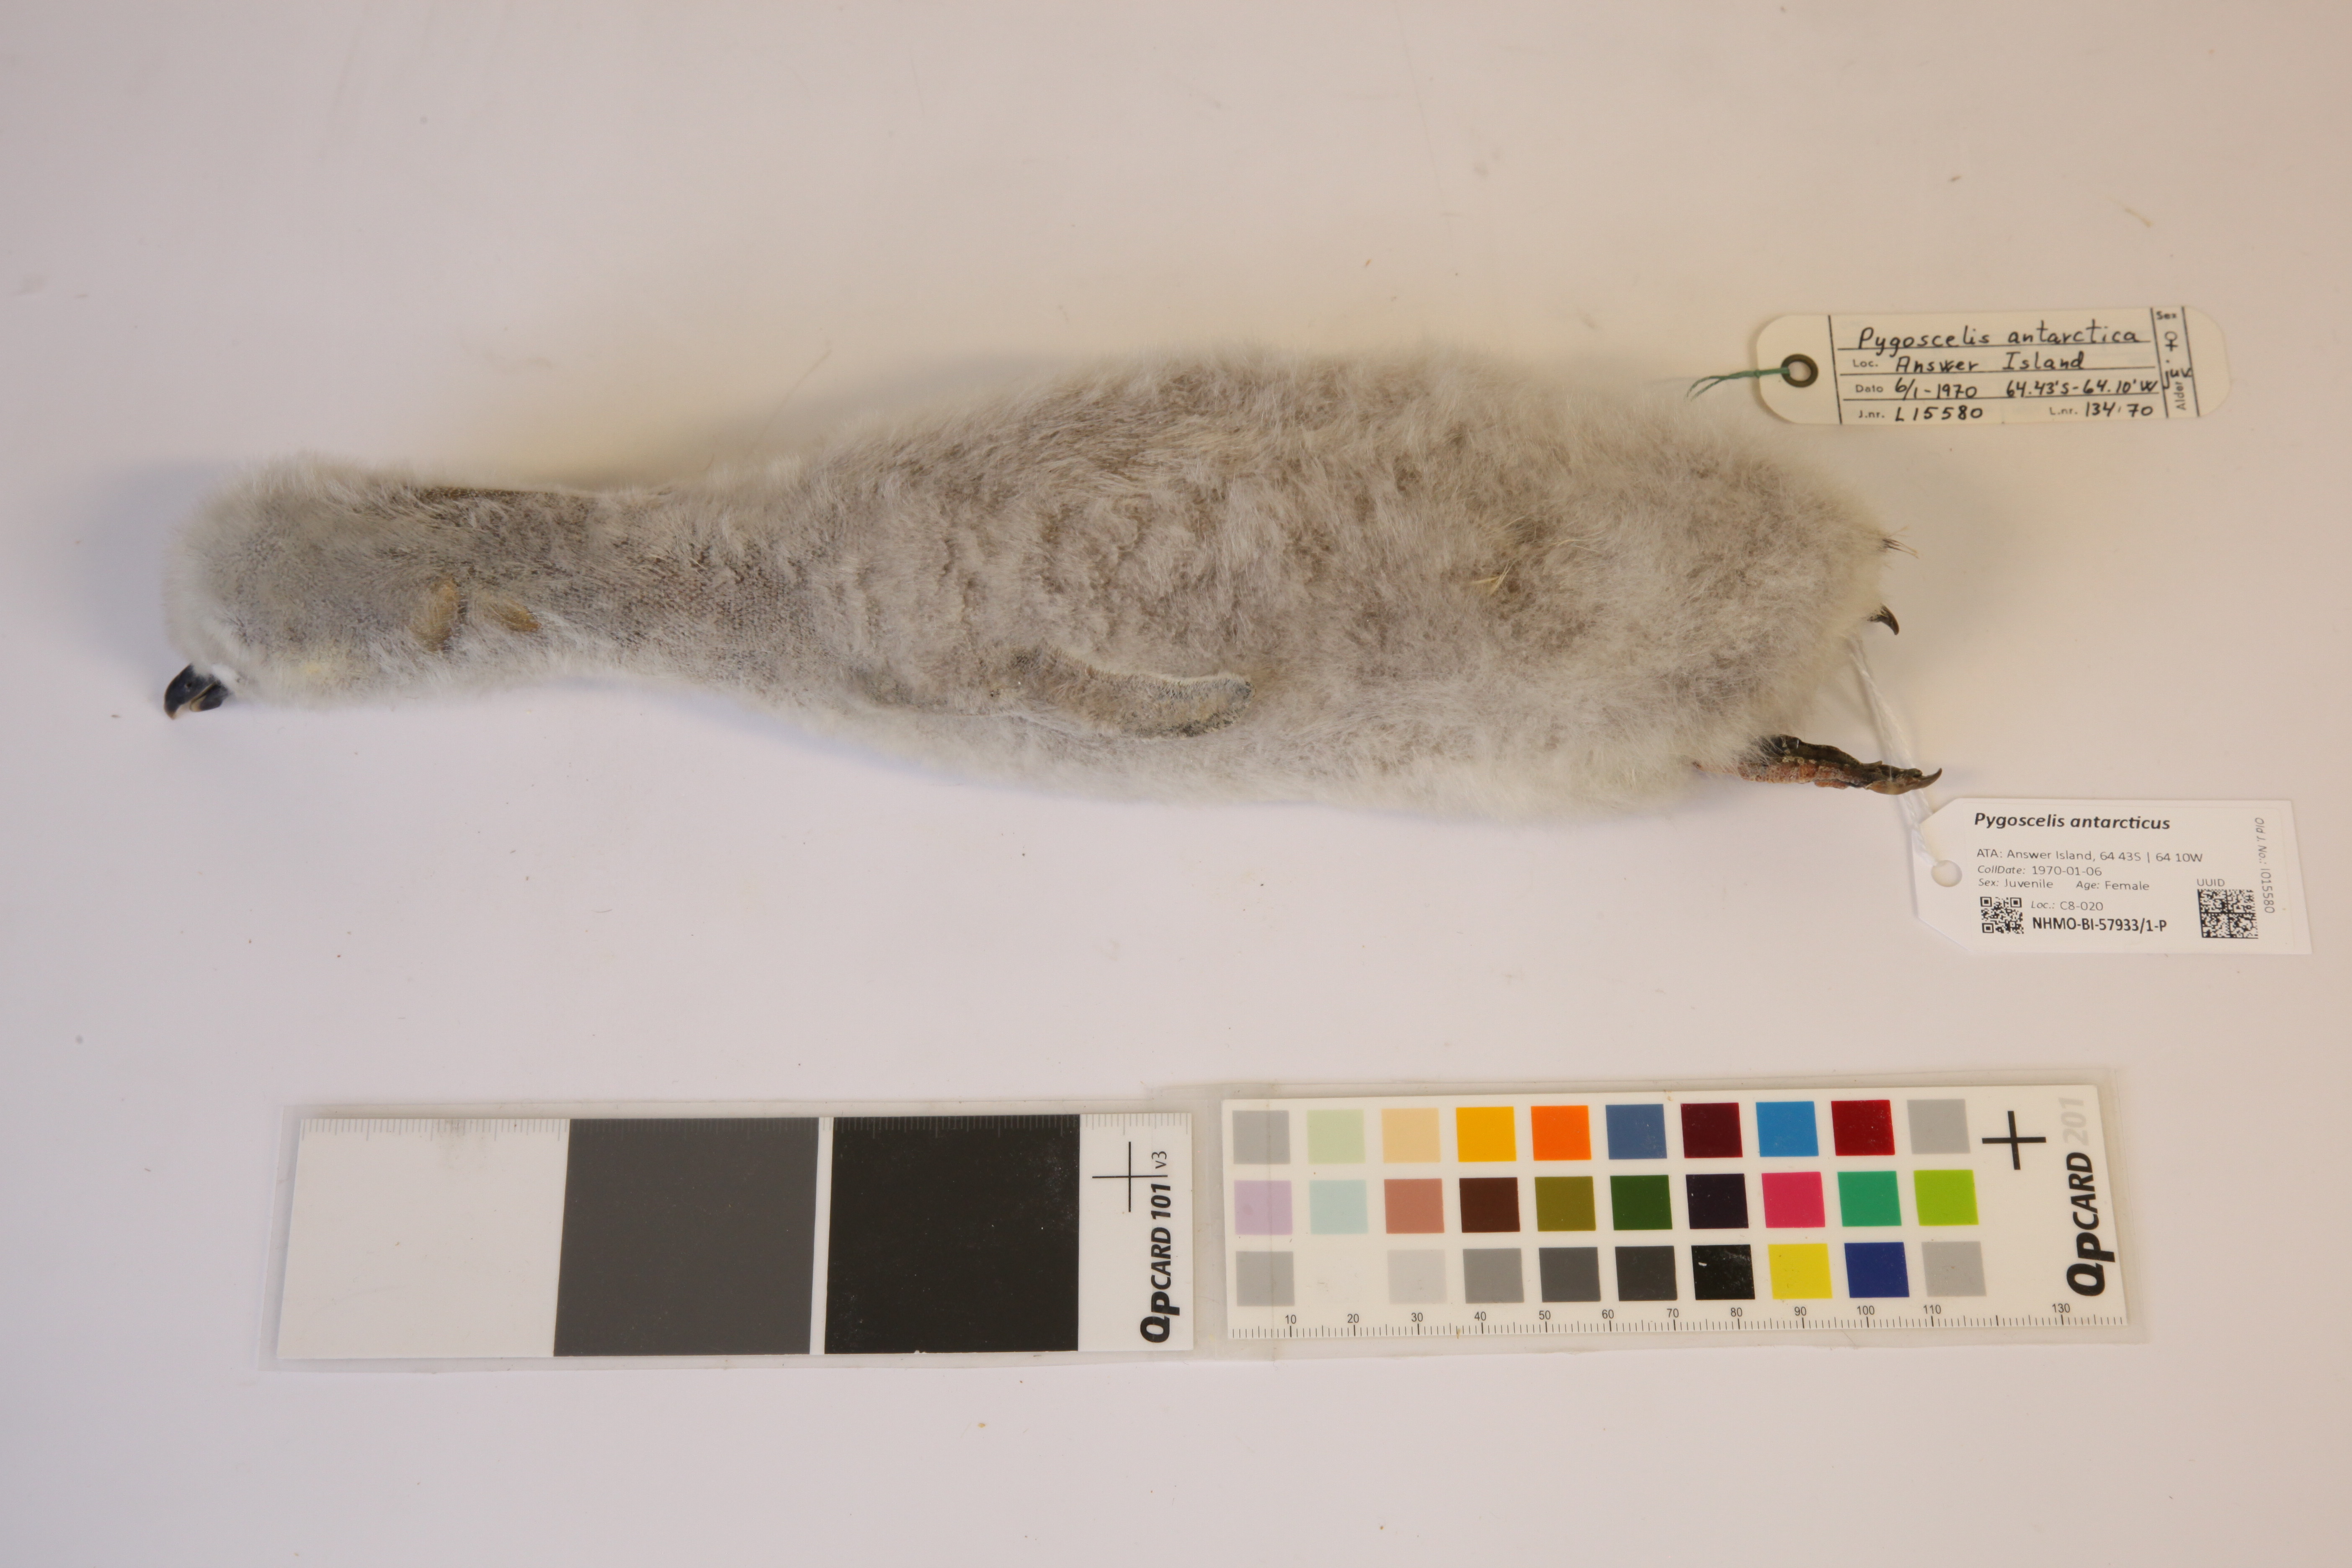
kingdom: Animalia
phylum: Chordata
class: Aves
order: Sphenisciformes
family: Spheniscidae
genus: Pygoscelis
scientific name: Pygoscelis antarcticus
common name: Chinstrap penguin
